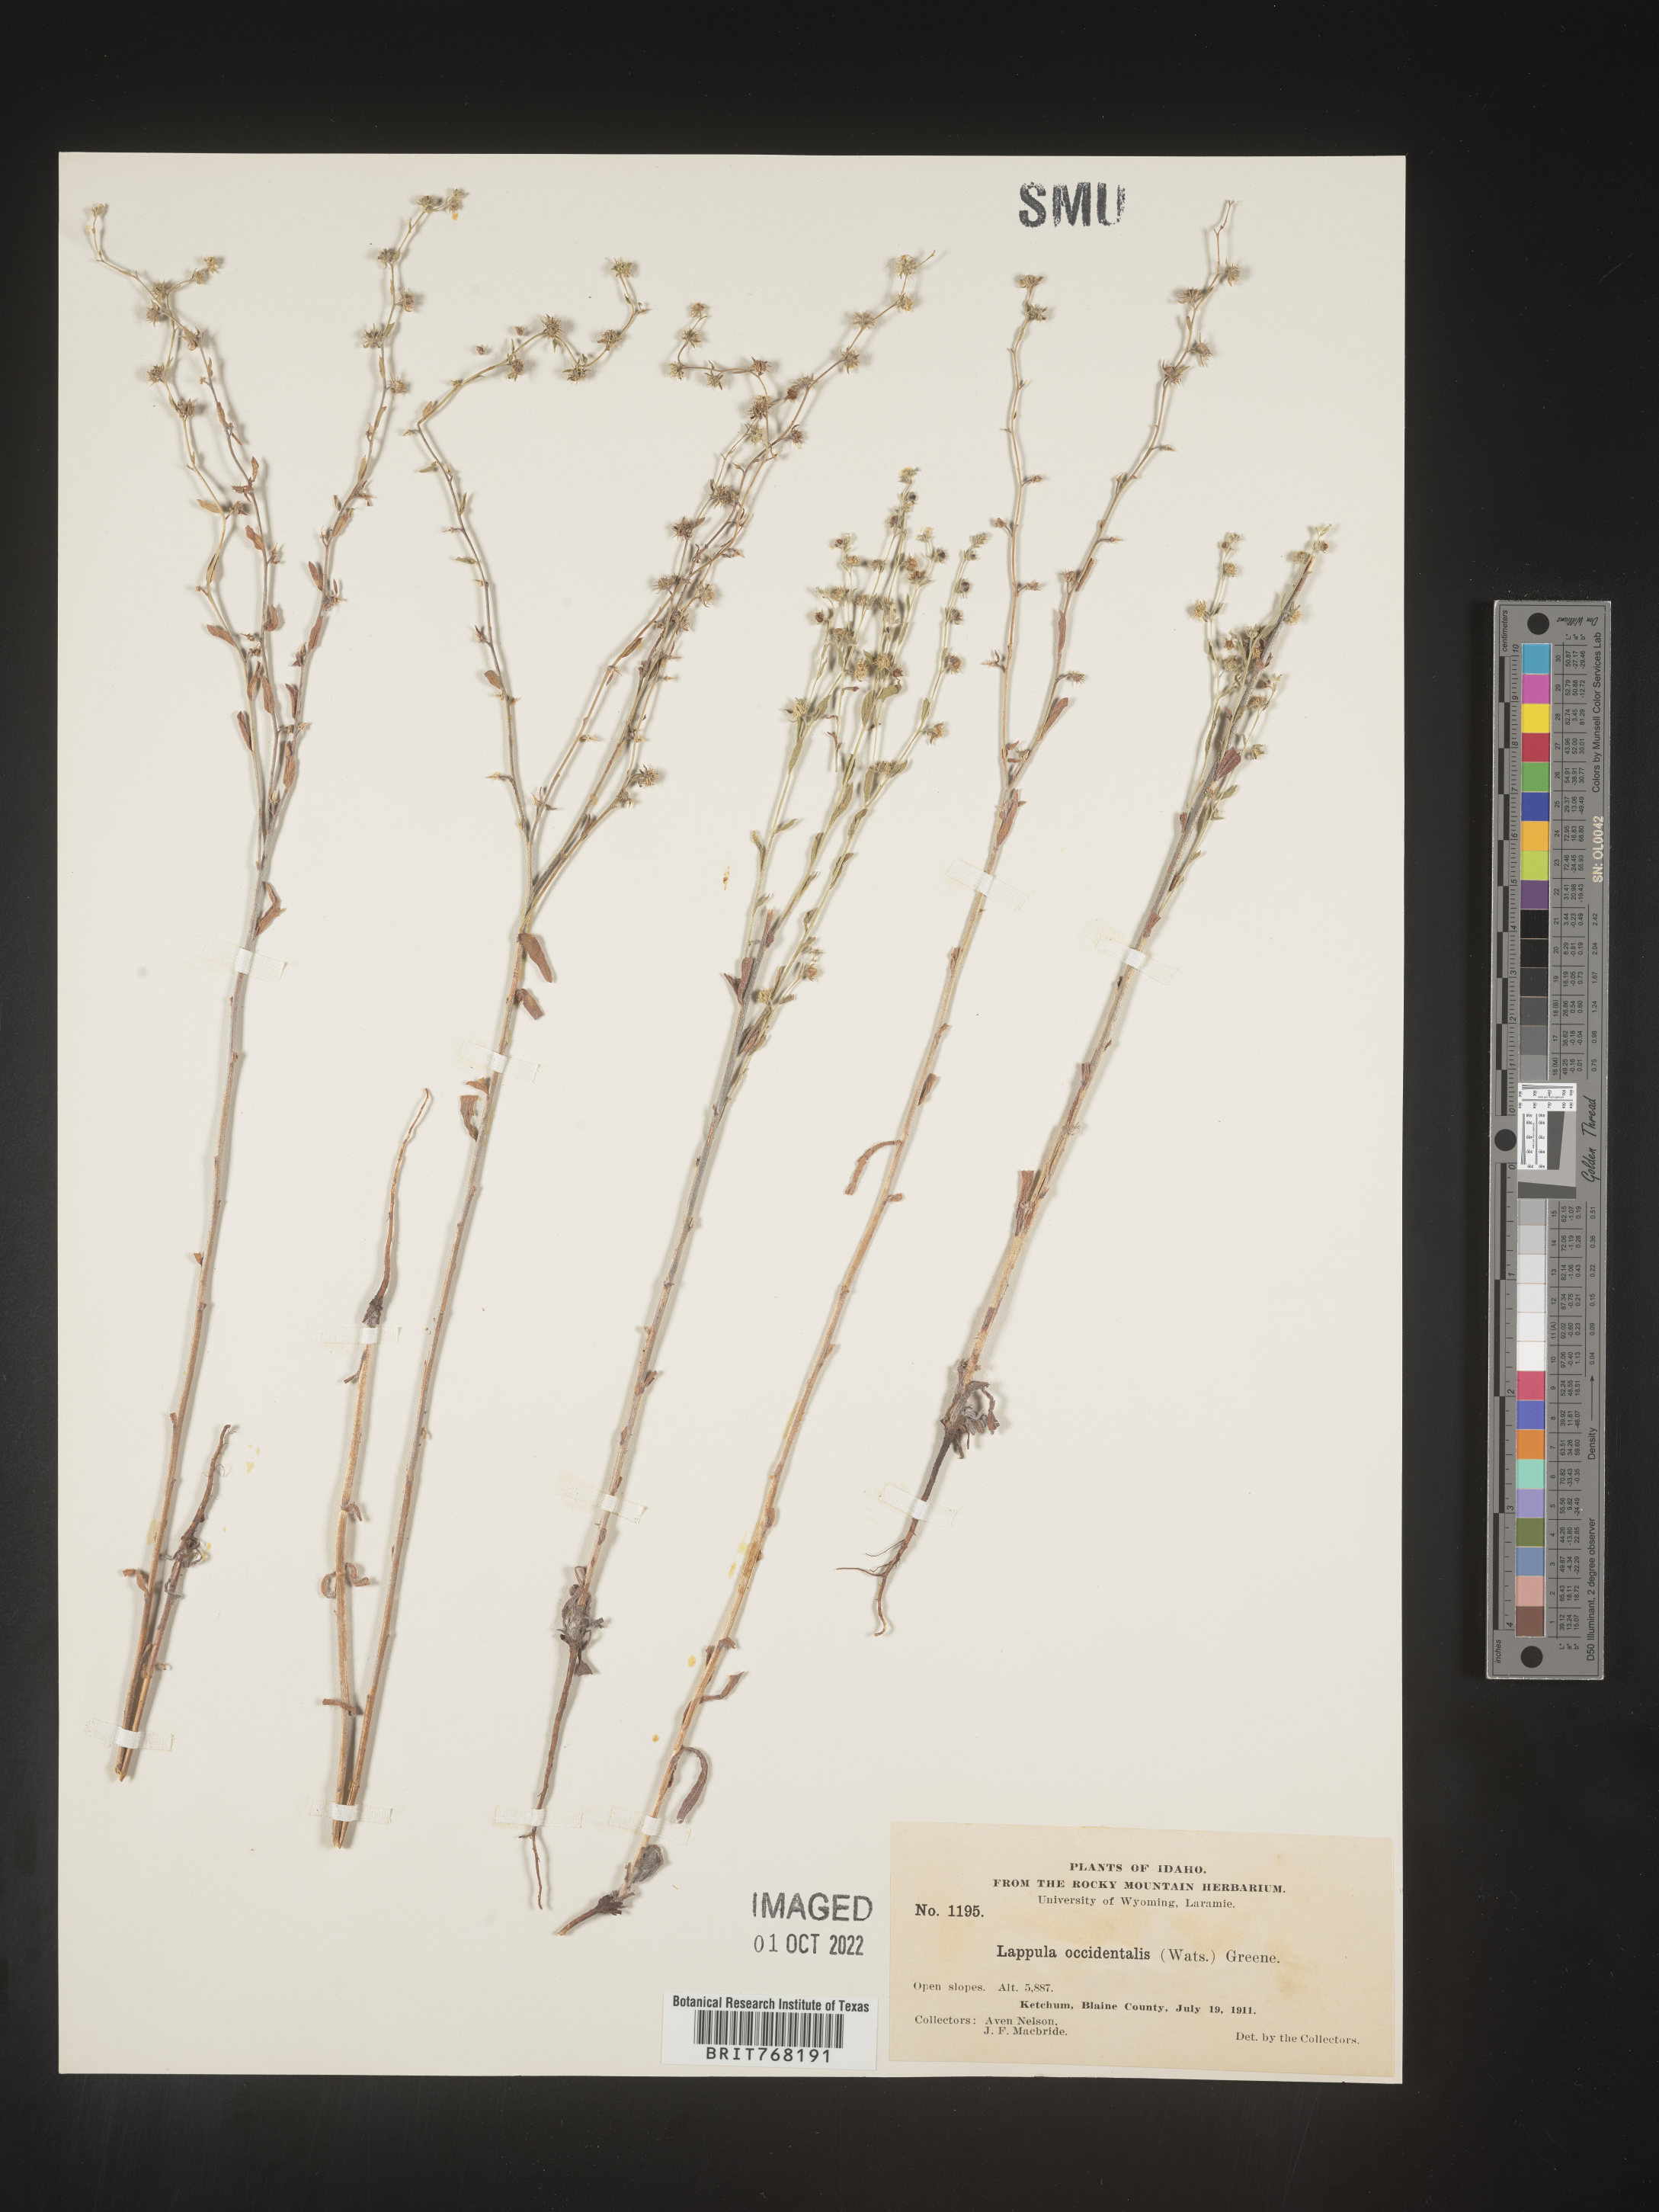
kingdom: Plantae
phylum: Tracheophyta
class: Magnoliopsida
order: Boraginales
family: Boraginaceae
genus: Lappula
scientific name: Lappula
